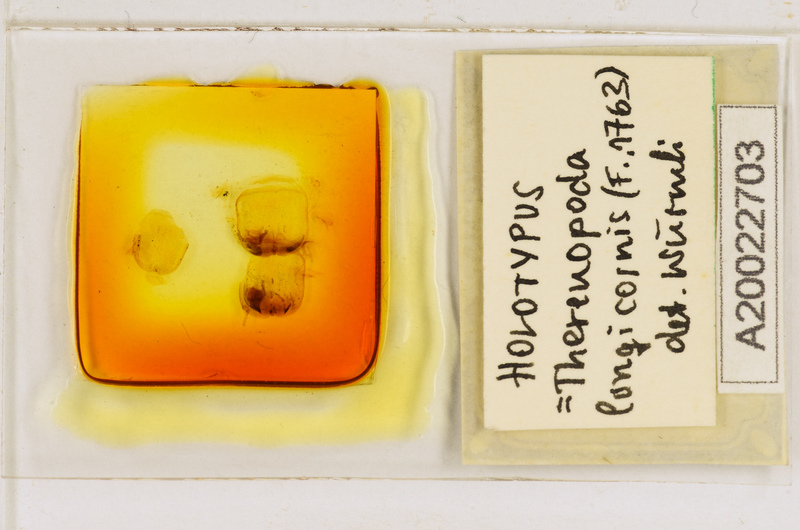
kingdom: Animalia
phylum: Arthropoda
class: Chilopoda
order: Scutigeromorpha
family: Scutigeridae
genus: Thereuopoda
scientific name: Thereuopoda longicornis
